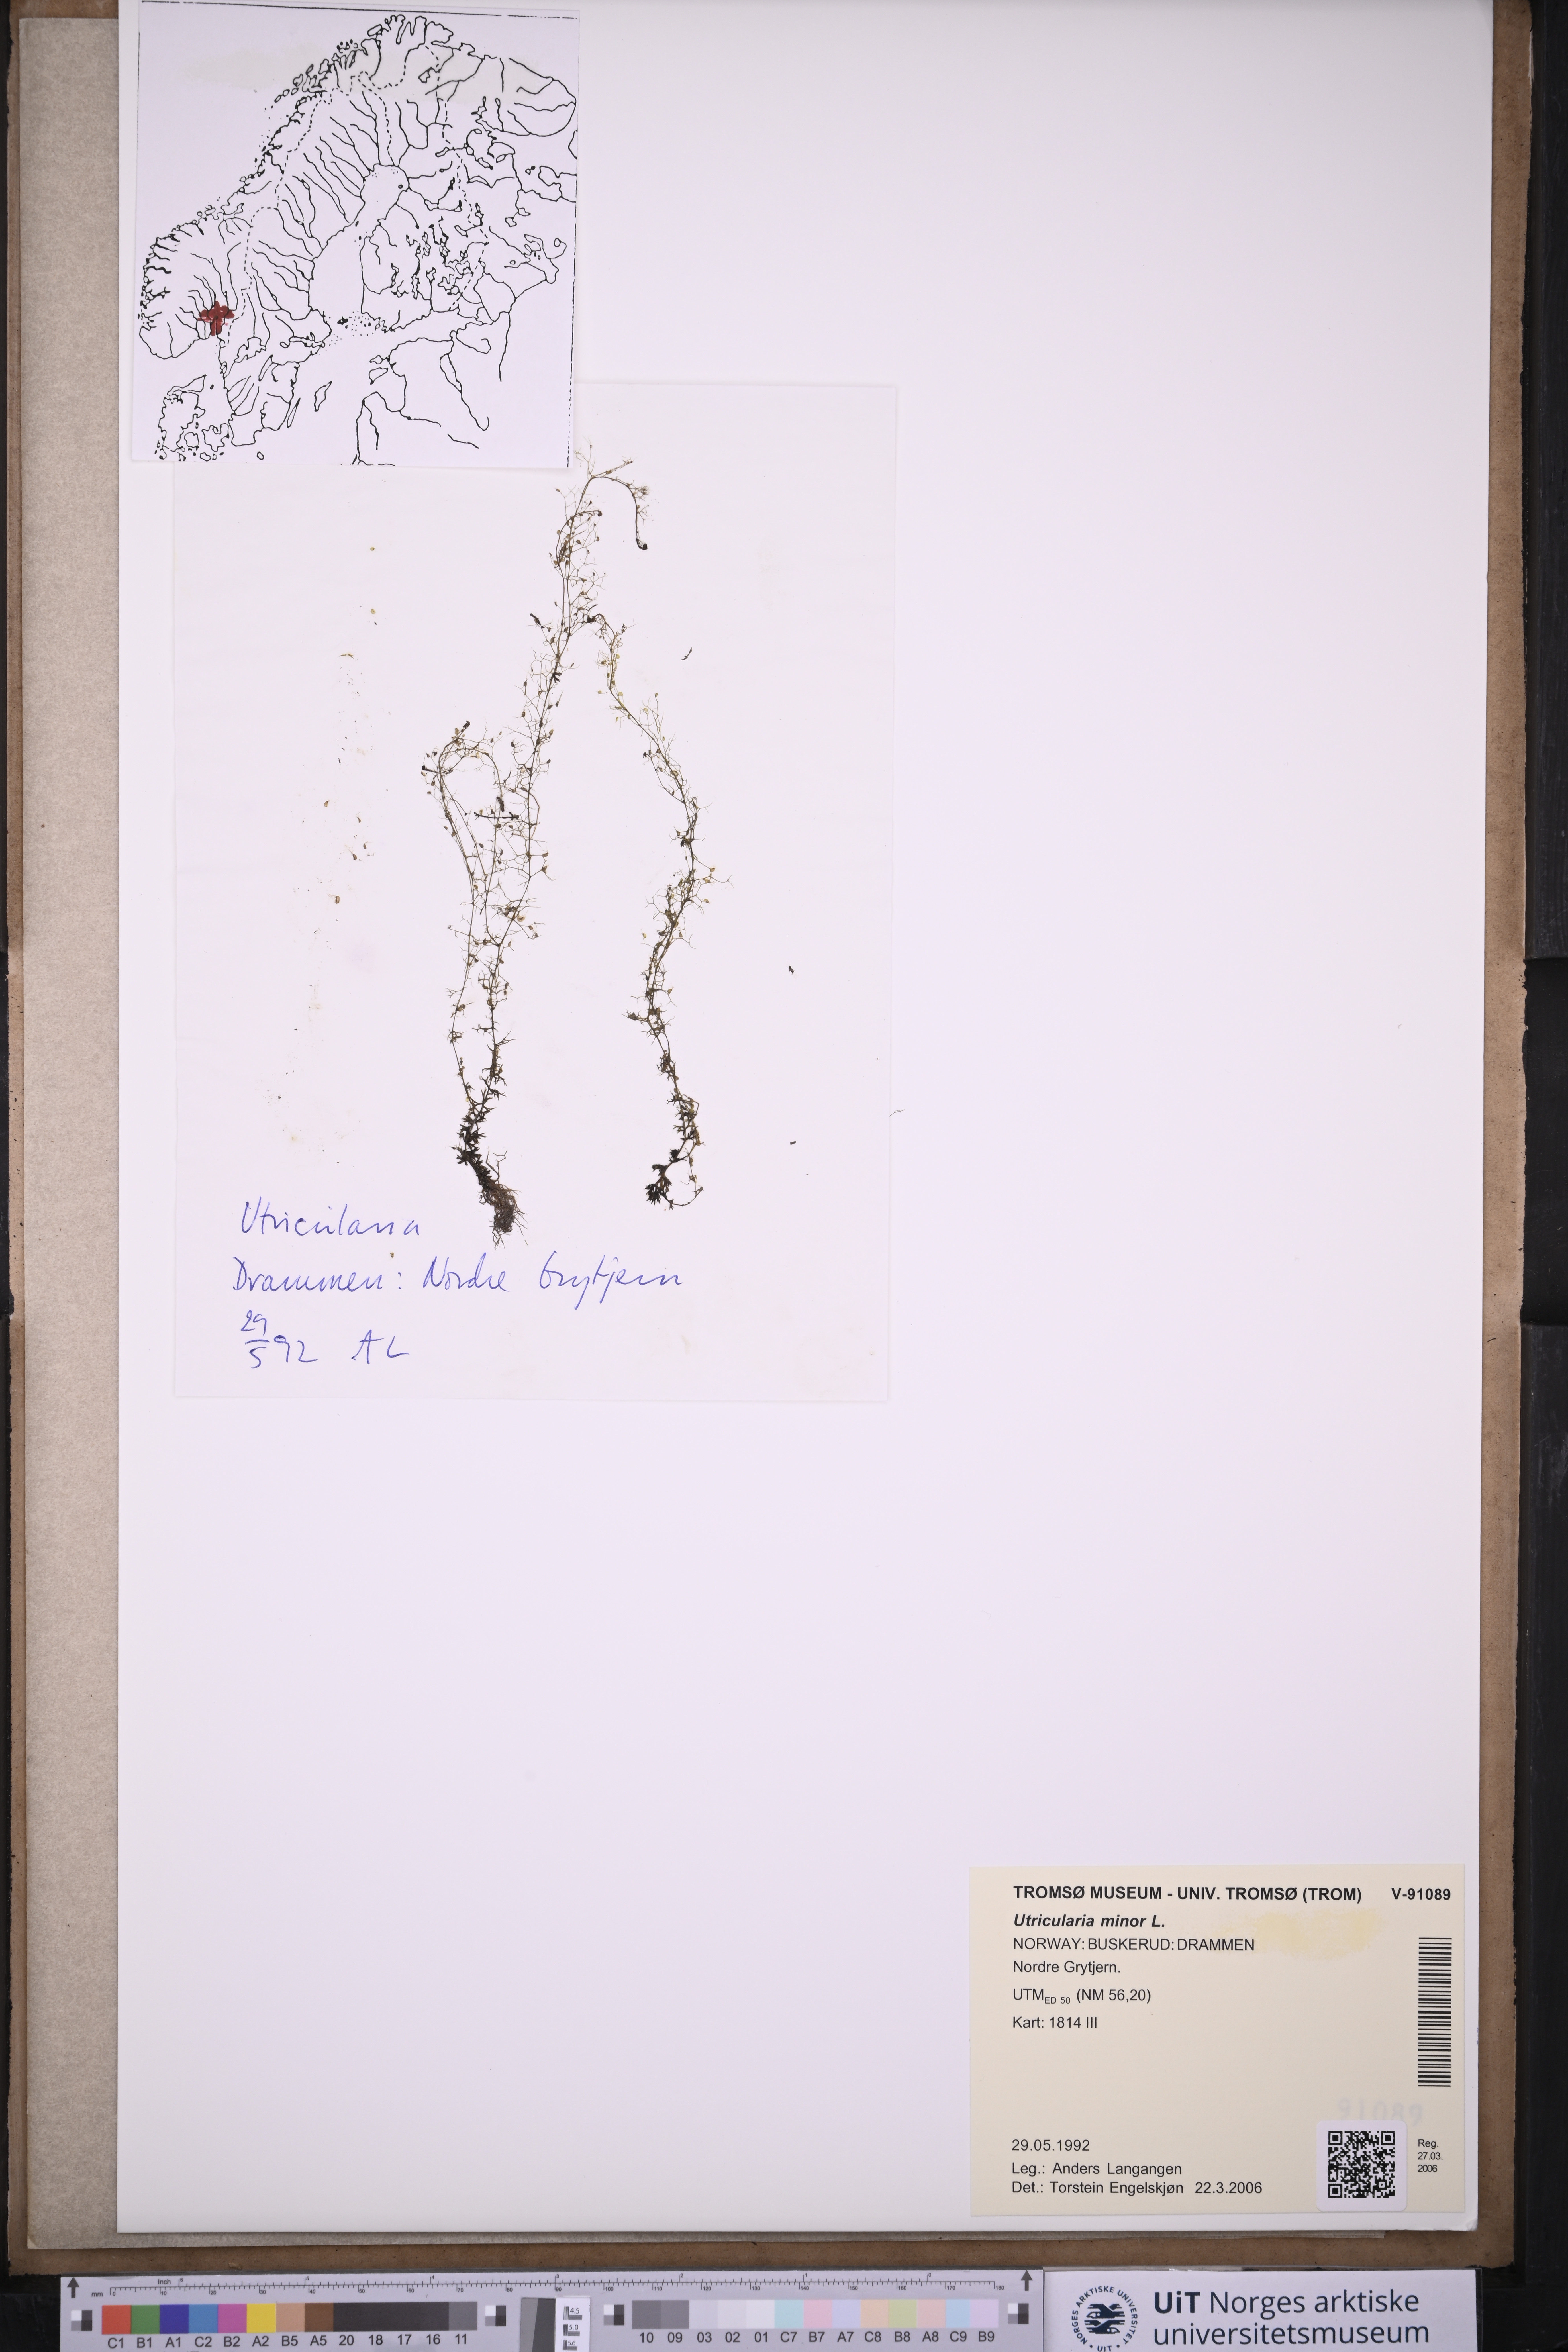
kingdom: Plantae
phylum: Tracheophyta
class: Magnoliopsida
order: Lamiales
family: Lentibulariaceae
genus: Utricularia
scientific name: Utricularia minor
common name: Lesser bladderwort
